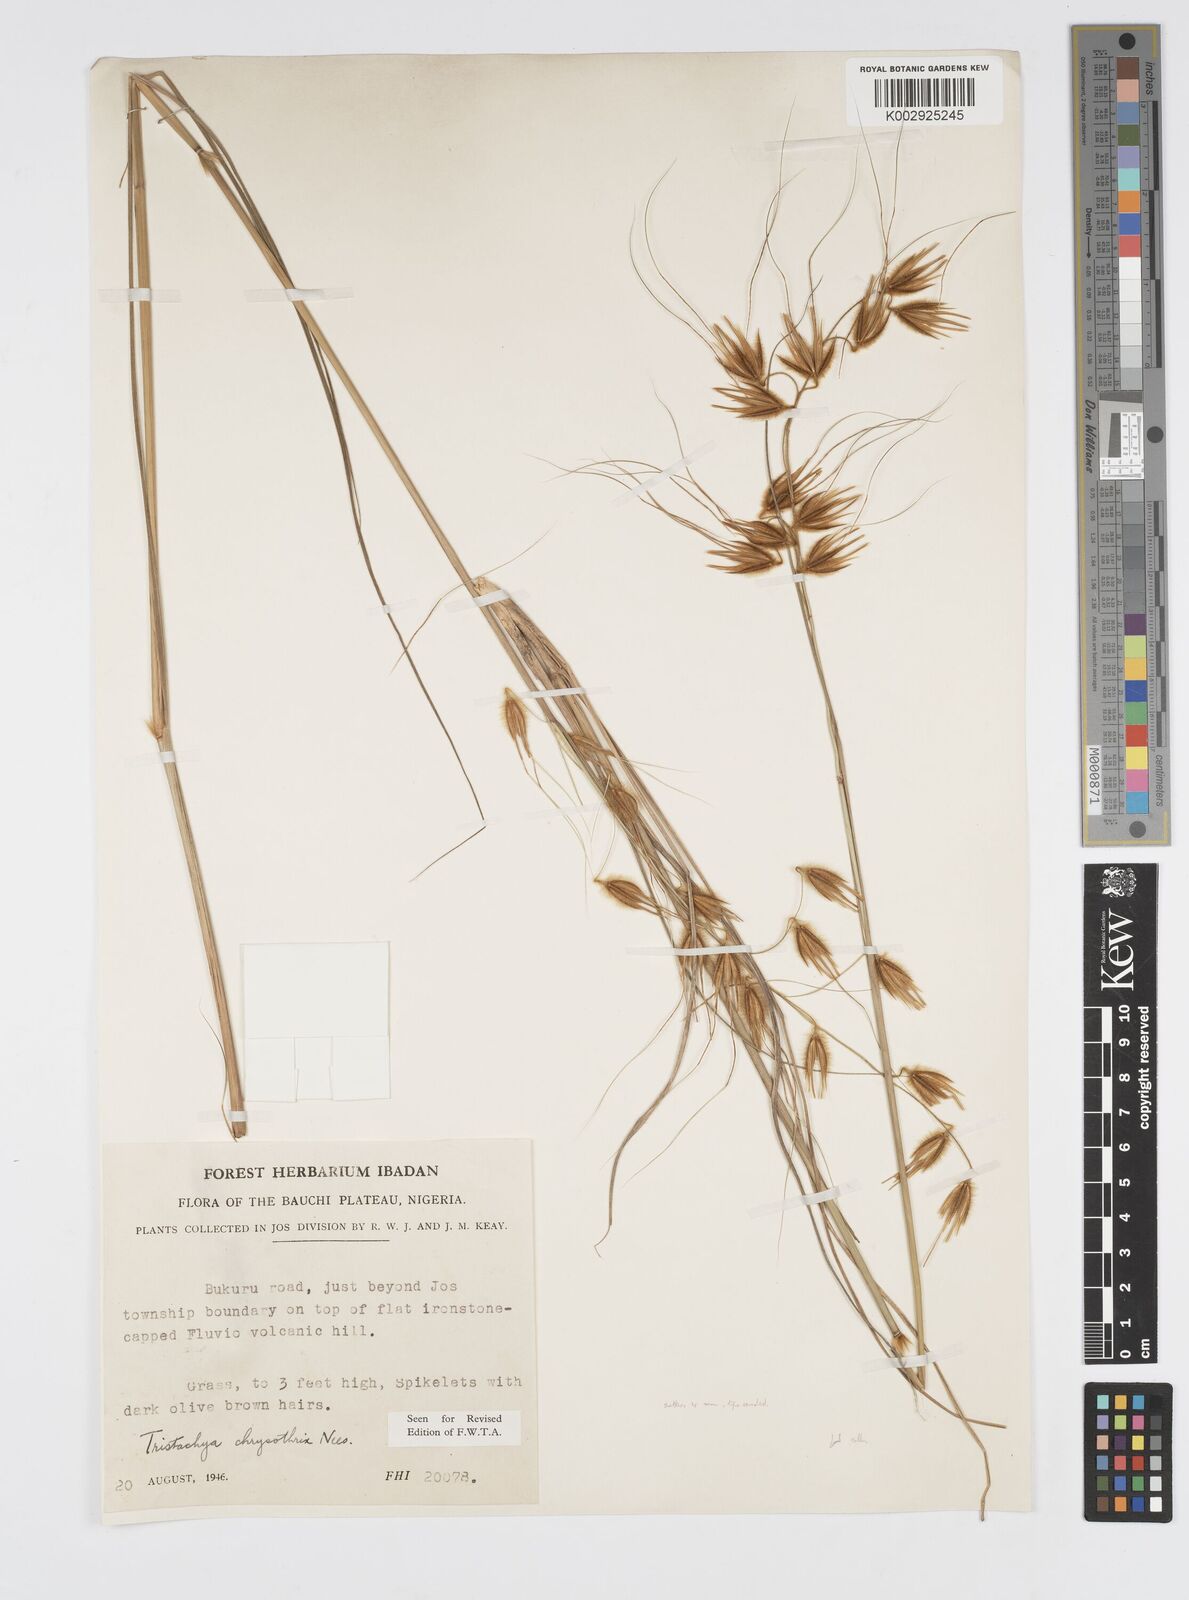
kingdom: Plantae
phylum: Tracheophyta
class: Liliopsida
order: Poales
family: Poaceae
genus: Loudetiopsis
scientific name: Loudetiopsis chrysothrix
